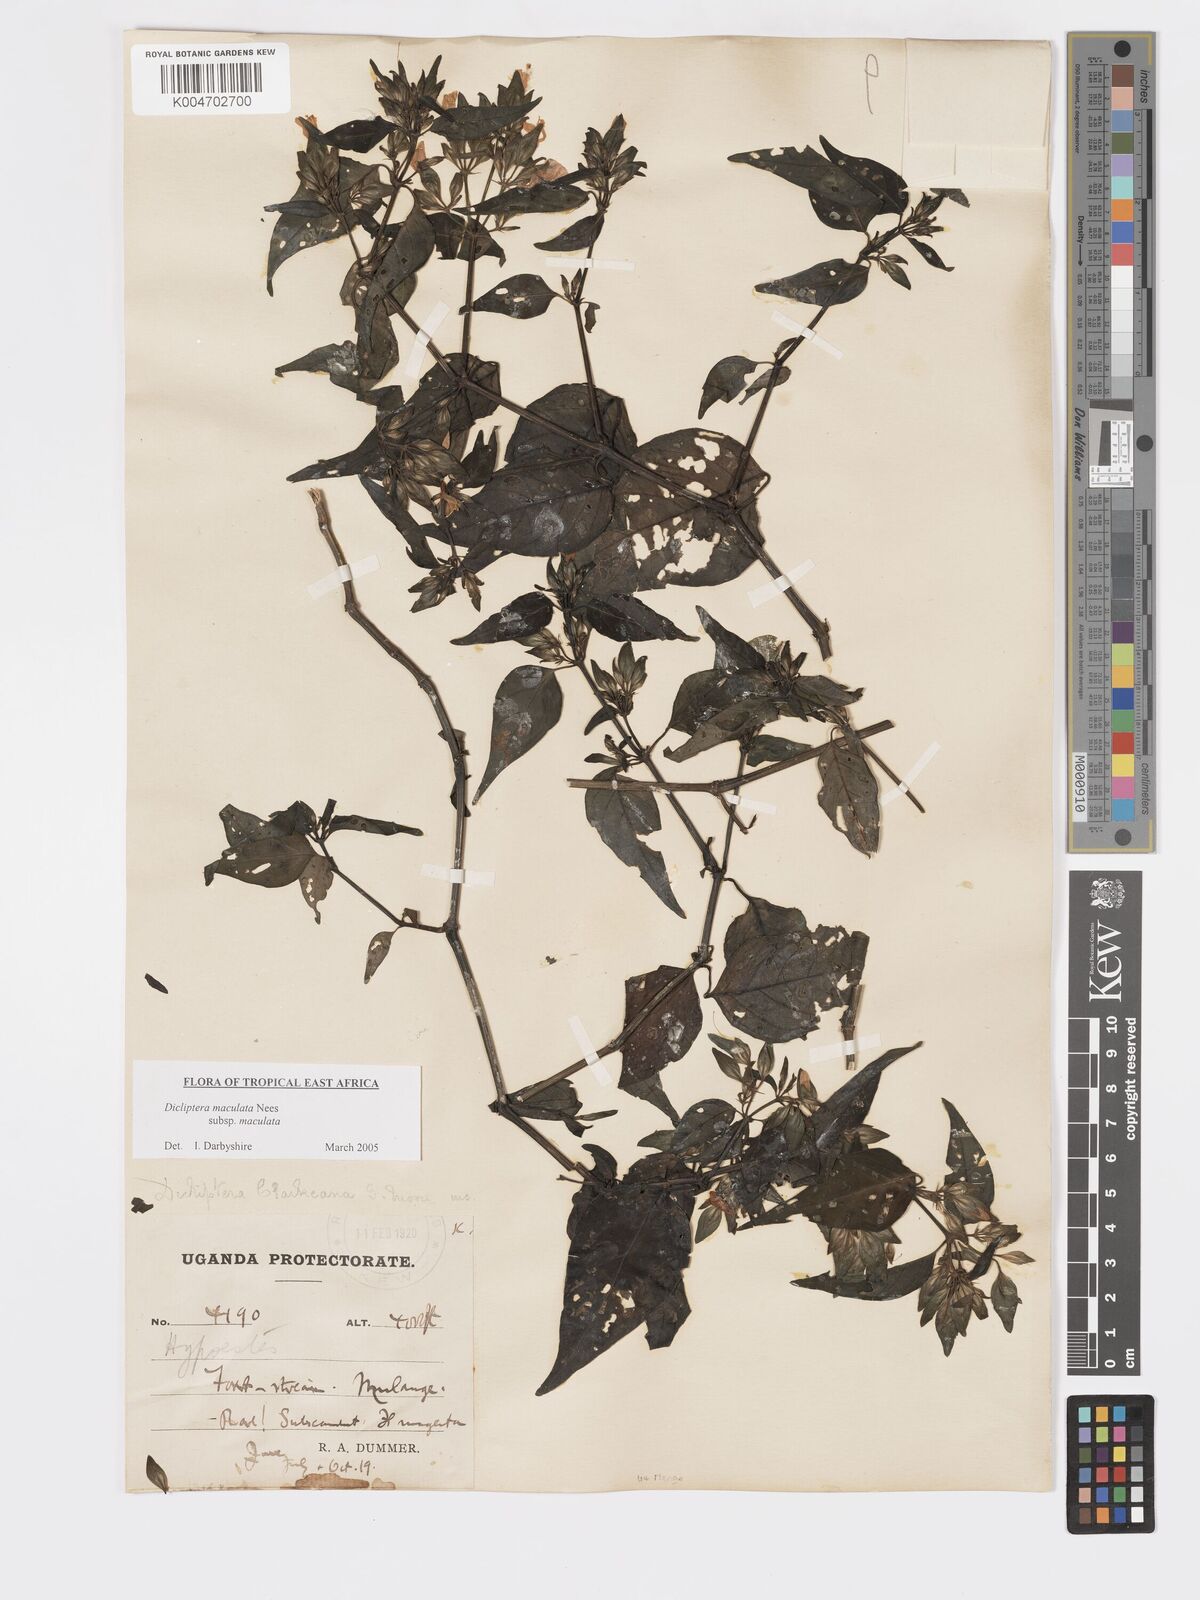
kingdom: Plantae
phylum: Tracheophyta
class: Magnoliopsida
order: Lamiales
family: Acanthaceae
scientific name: Acanthaceae
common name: Acanthaceae
